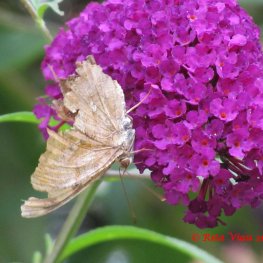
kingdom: Animalia
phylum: Arthropoda
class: Insecta
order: Lepidoptera
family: Nymphalidae
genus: Polygonia
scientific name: Polygonia interrogationis
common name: Question Mark
